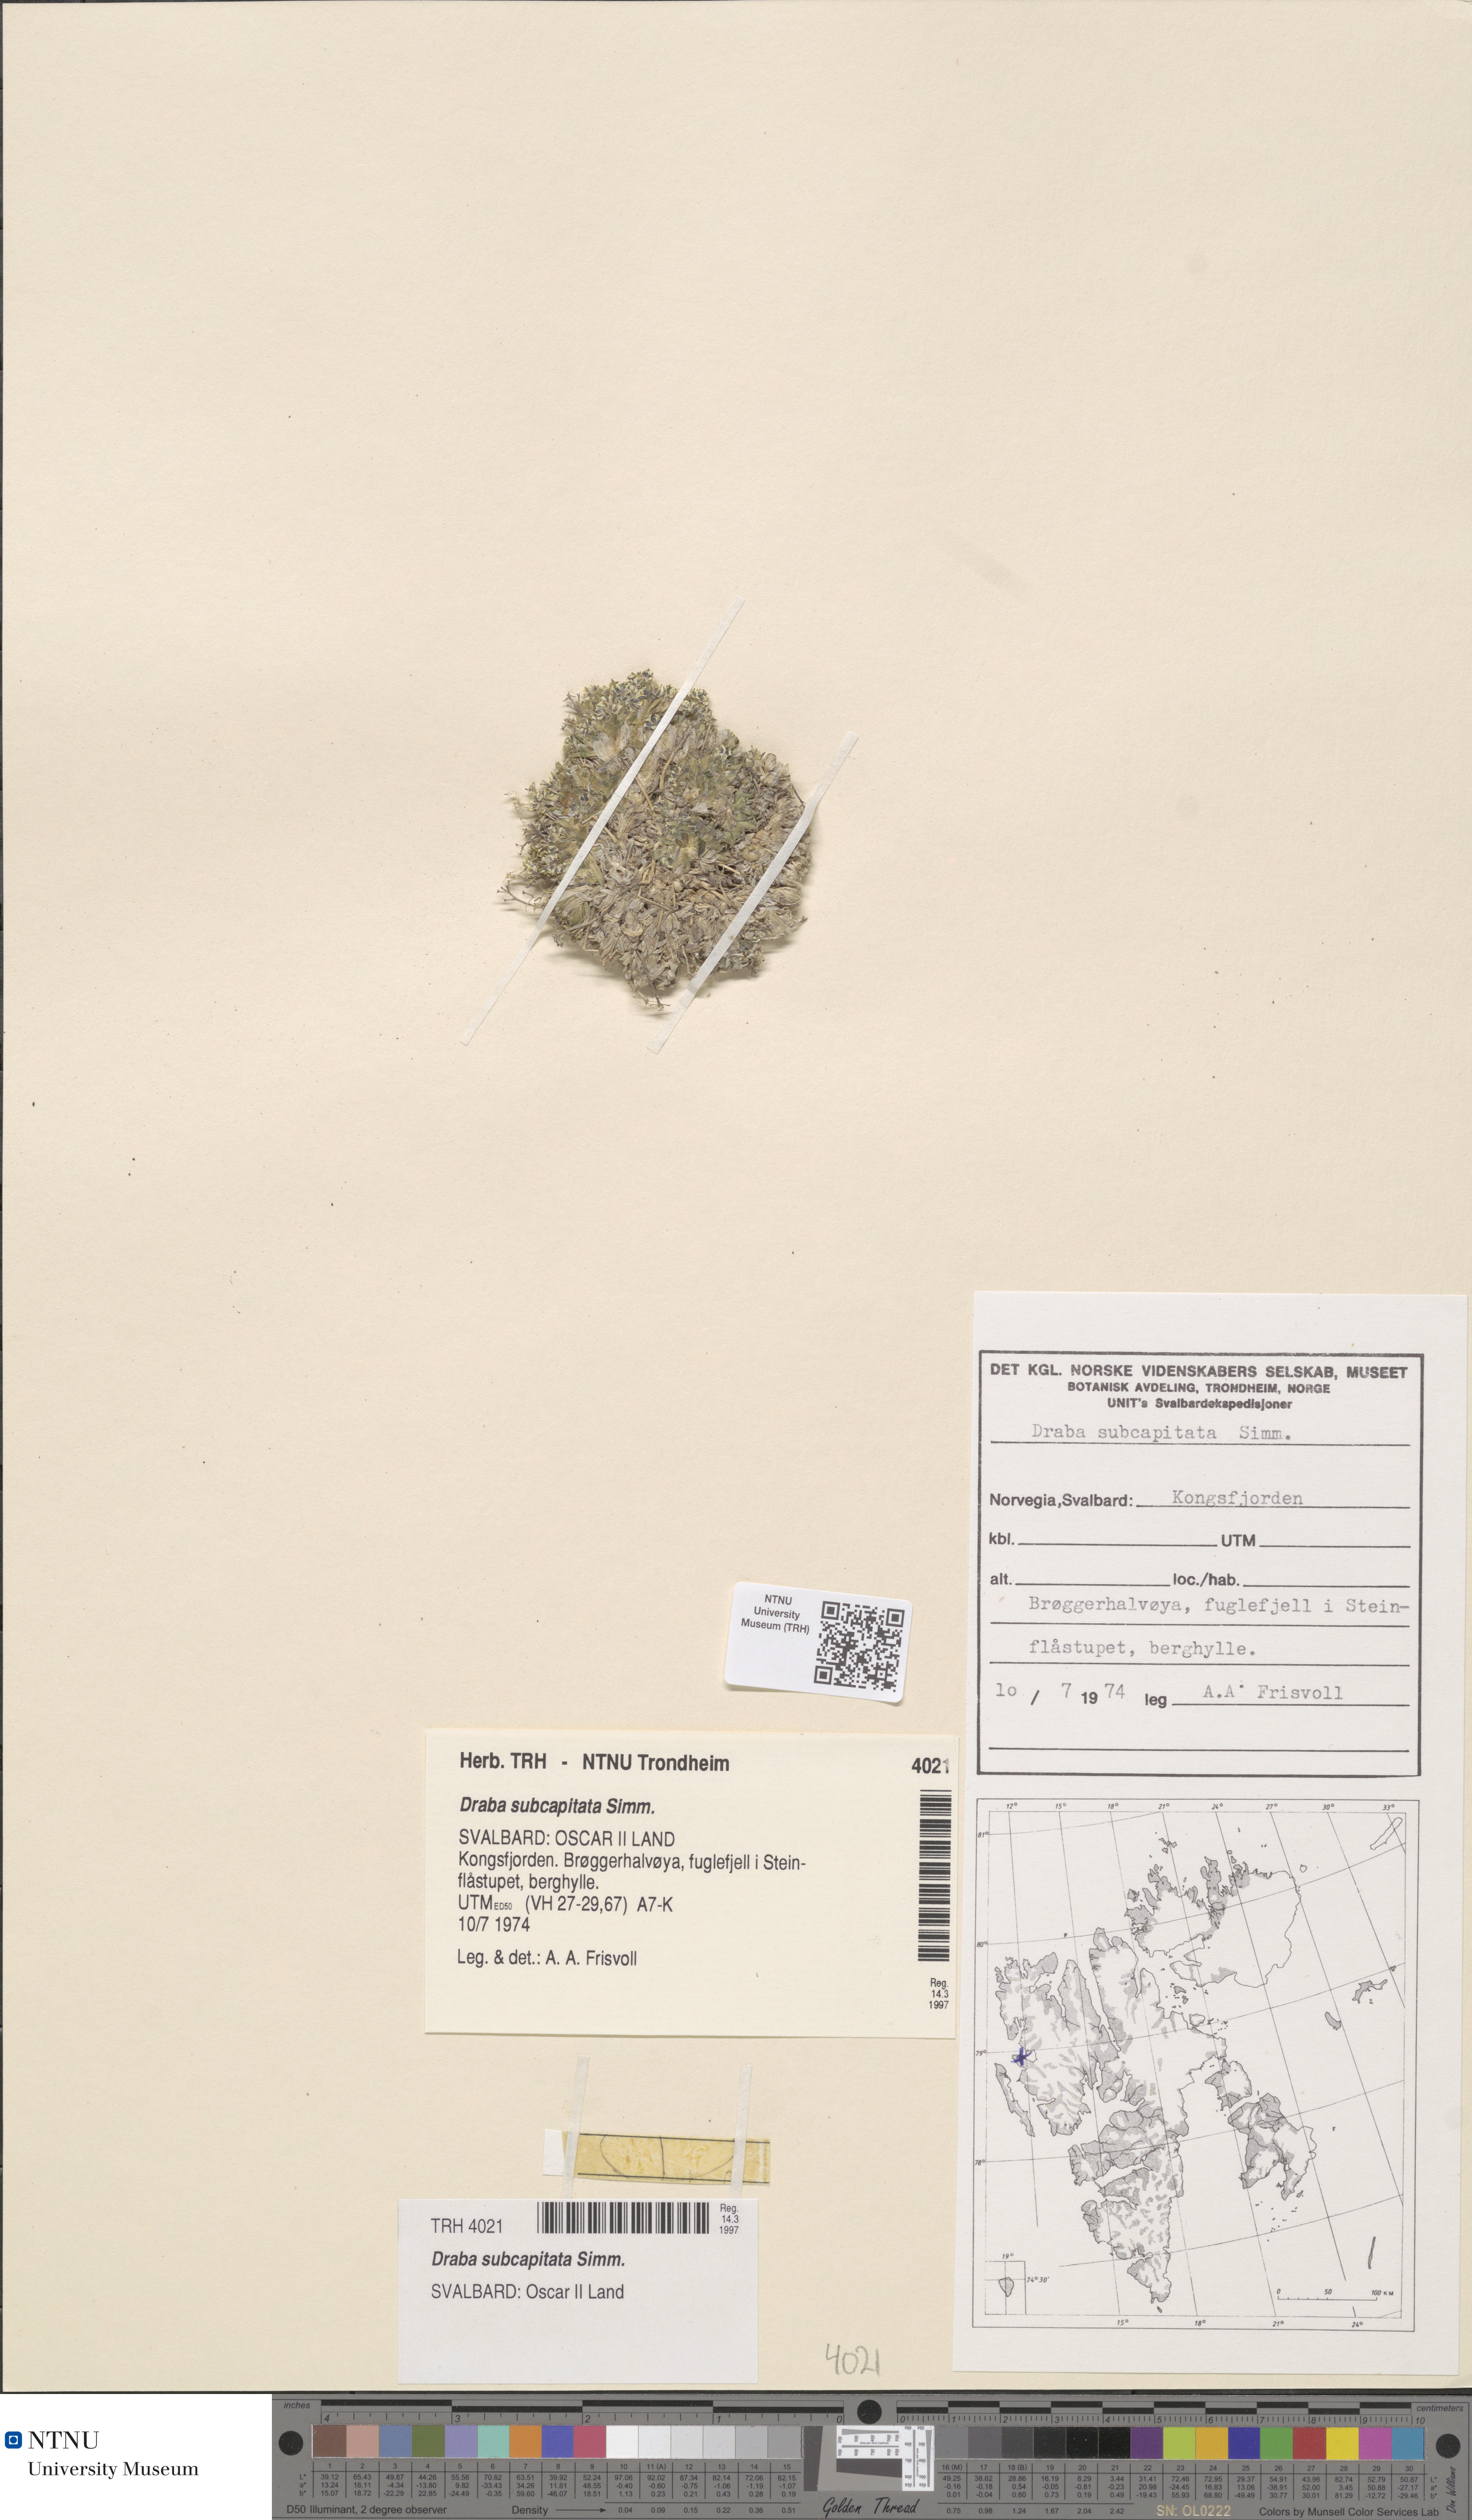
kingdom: Plantae
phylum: Tracheophyta
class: Magnoliopsida
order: Brassicales
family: Brassicaceae
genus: Draba
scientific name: Draba subcapitata
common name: Ellesmere island draba
